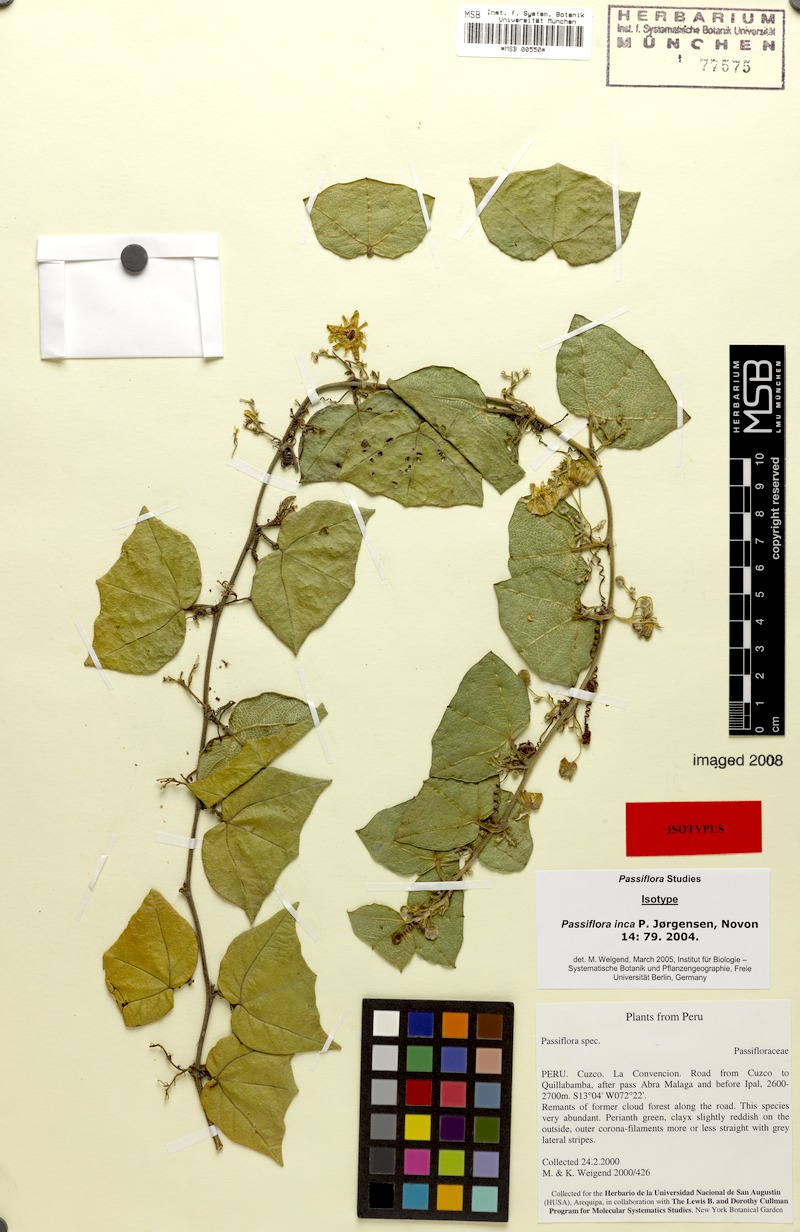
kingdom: Plantae
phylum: Tracheophyta
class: Magnoliopsida
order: Malpighiales
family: Passifloraceae
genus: Passiflora
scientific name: Passiflora inca
